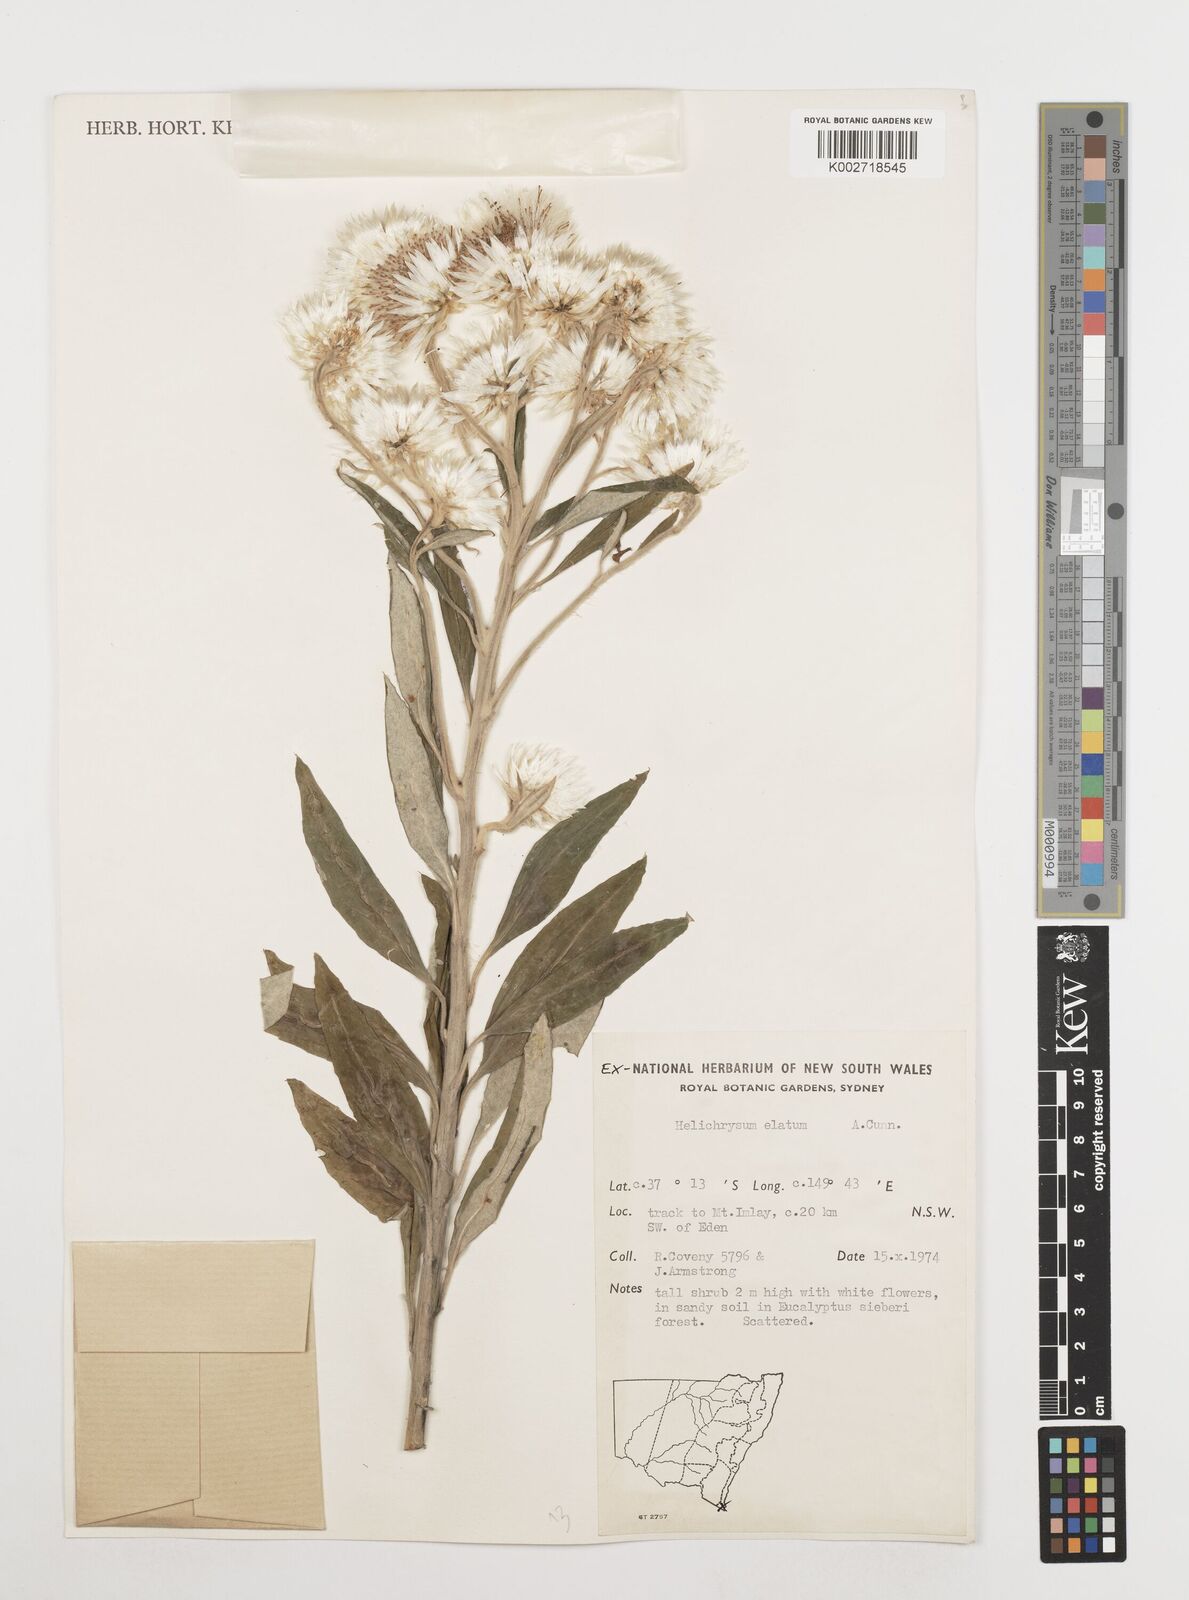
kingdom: Plantae
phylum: Tracheophyta
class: Magnoliopsida
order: Asterales
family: Asteraceae
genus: Leucozoma
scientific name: Leucozoma elatum
